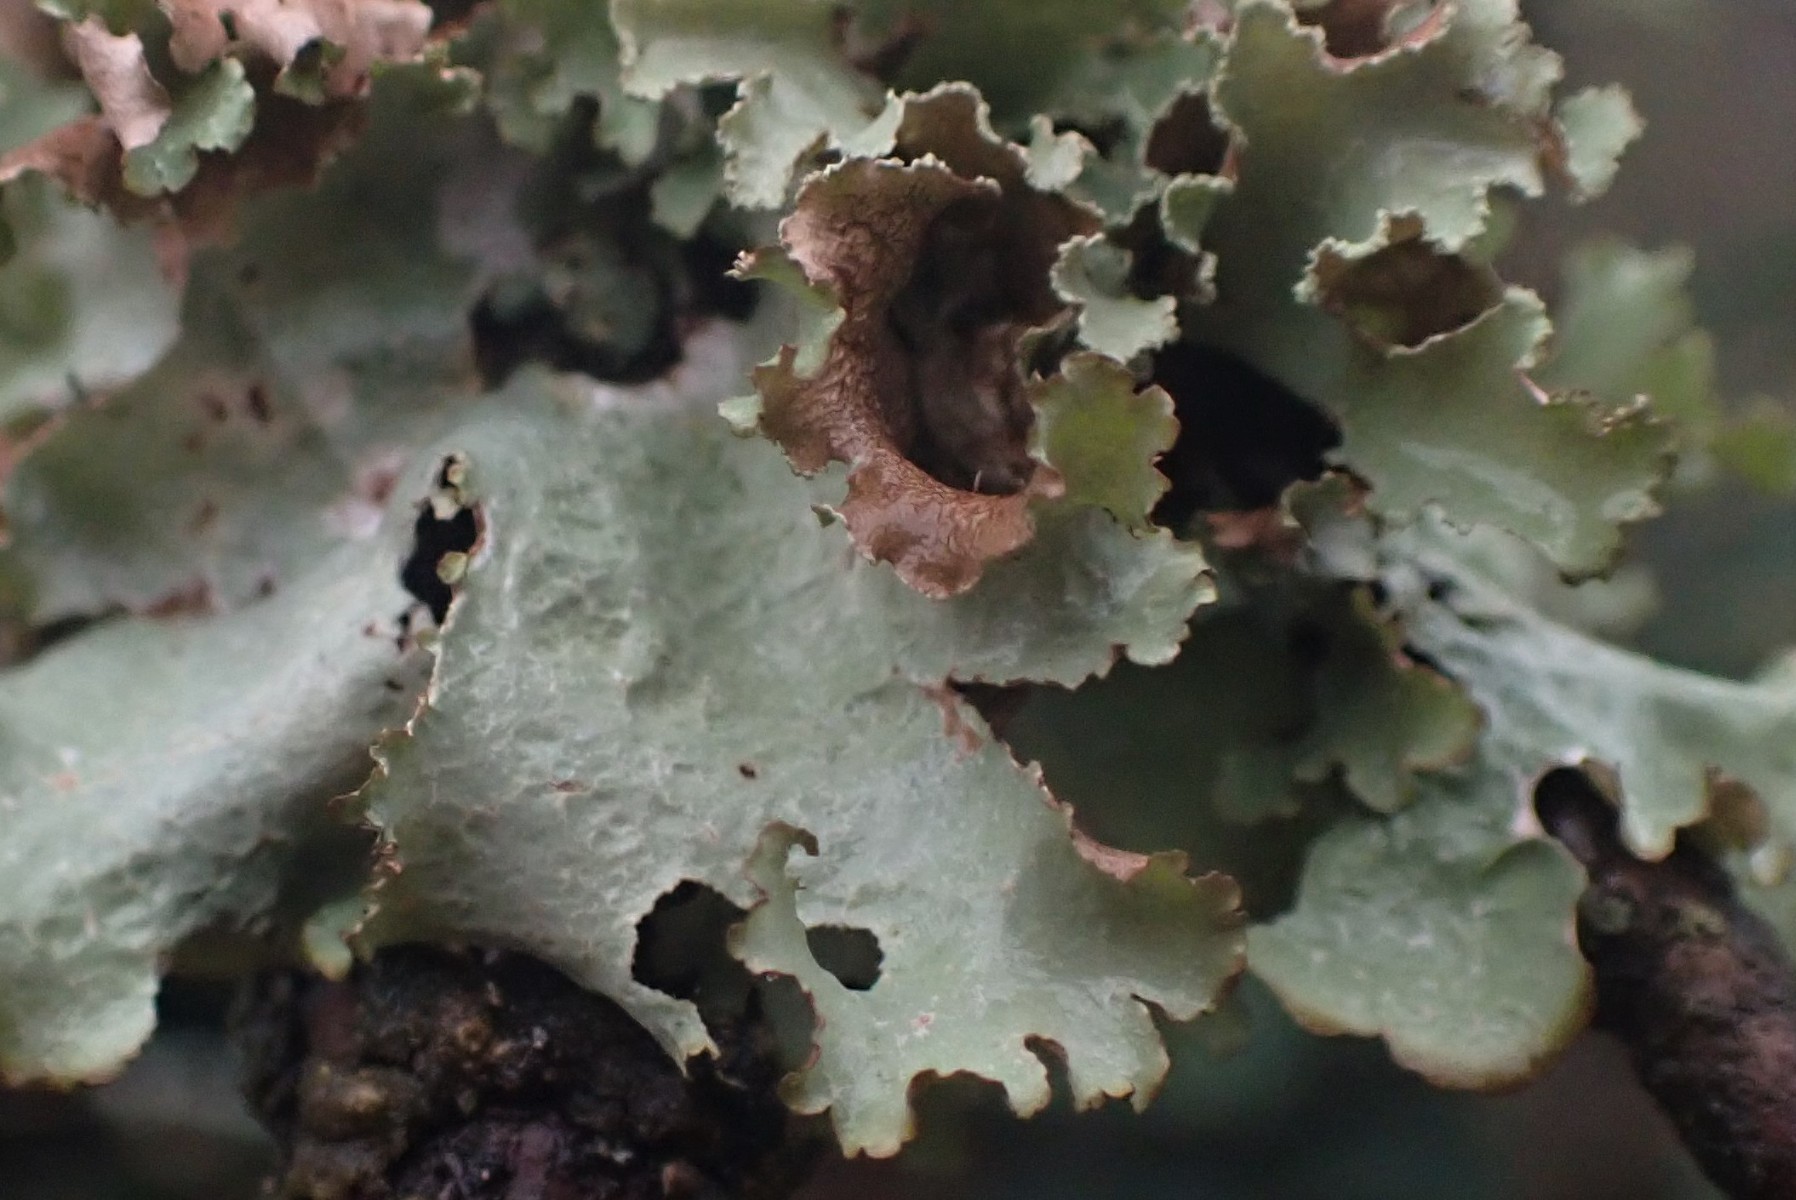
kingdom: Fungi
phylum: Ascomycota
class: Lecanoromycetes
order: Lecanorales
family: Parmeliaceae
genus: Platismatia
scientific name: Platismatia glauca
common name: blågrå papirlav
